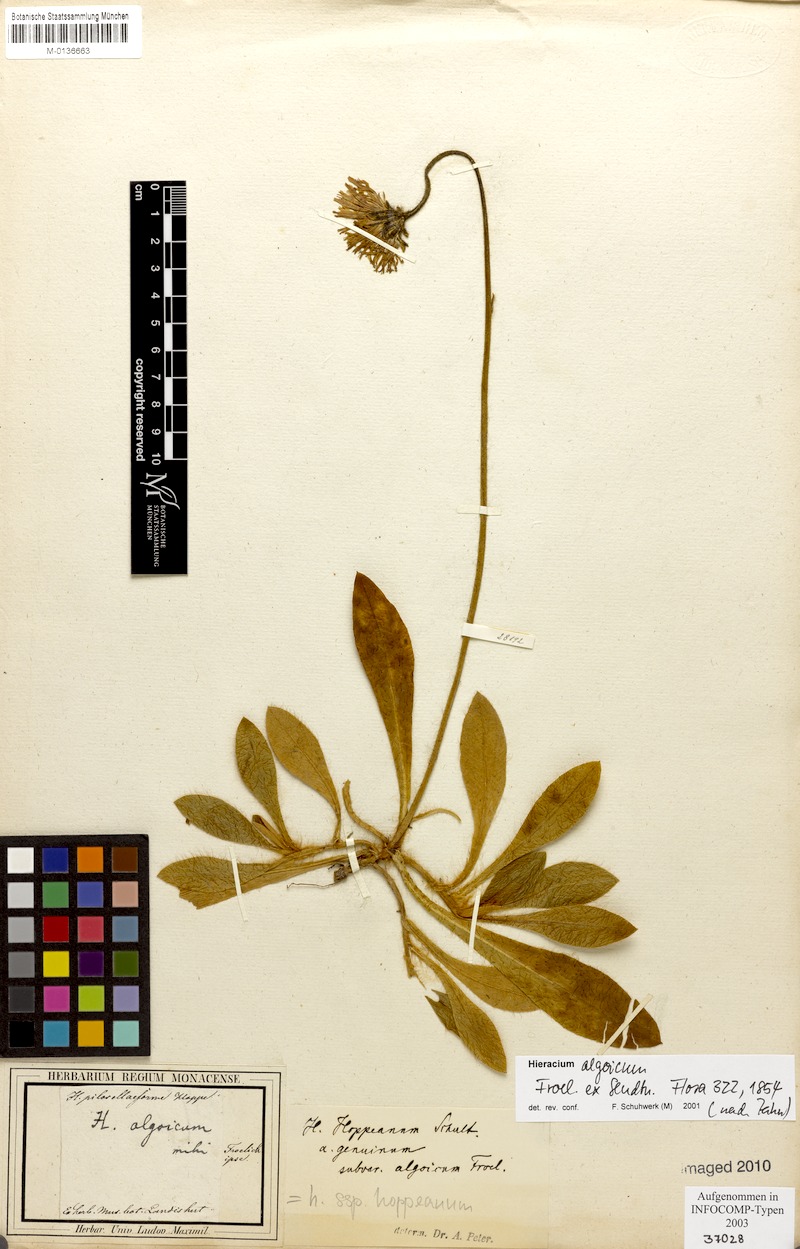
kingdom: Plantae
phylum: Tracheophyta
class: Magnoliopsida
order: Asterales
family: Asteraceae
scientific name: Asteraceae
